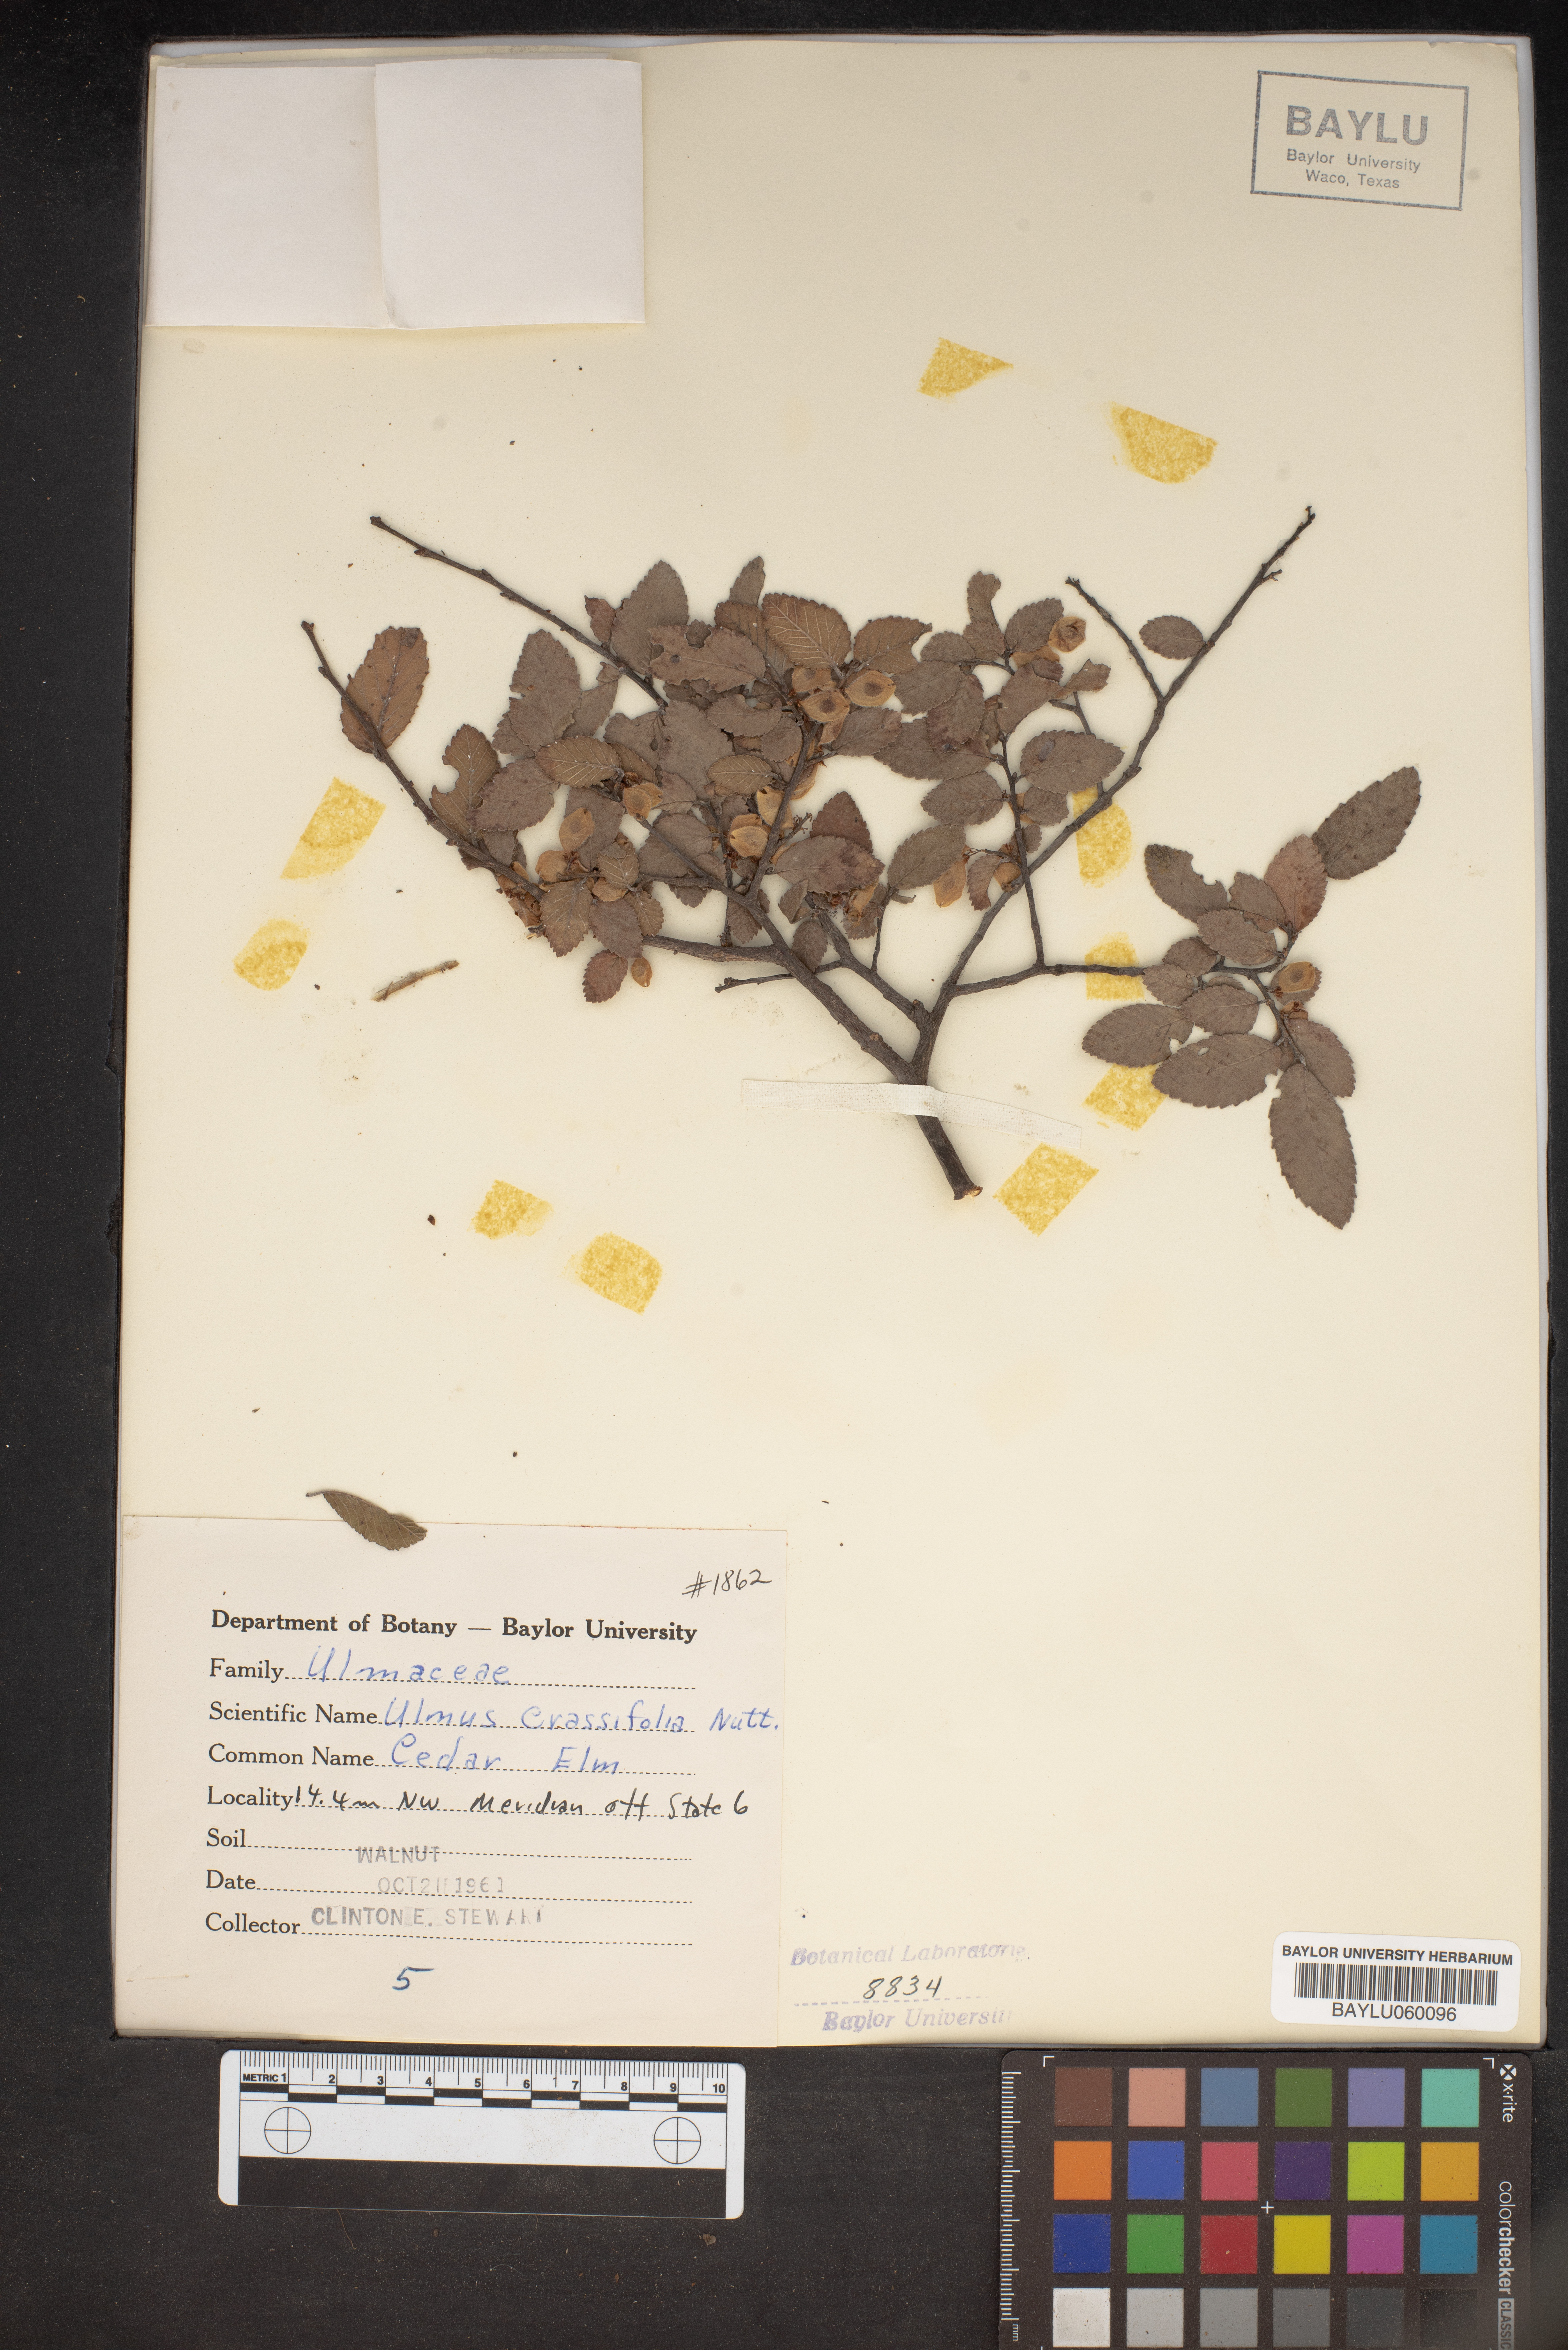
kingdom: Plantae
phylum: Tracheophyta
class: Magnoliopsida
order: Rosales
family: Ulmaceae
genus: Ulmus
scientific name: Ulmus crassifolia
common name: Basket elm
